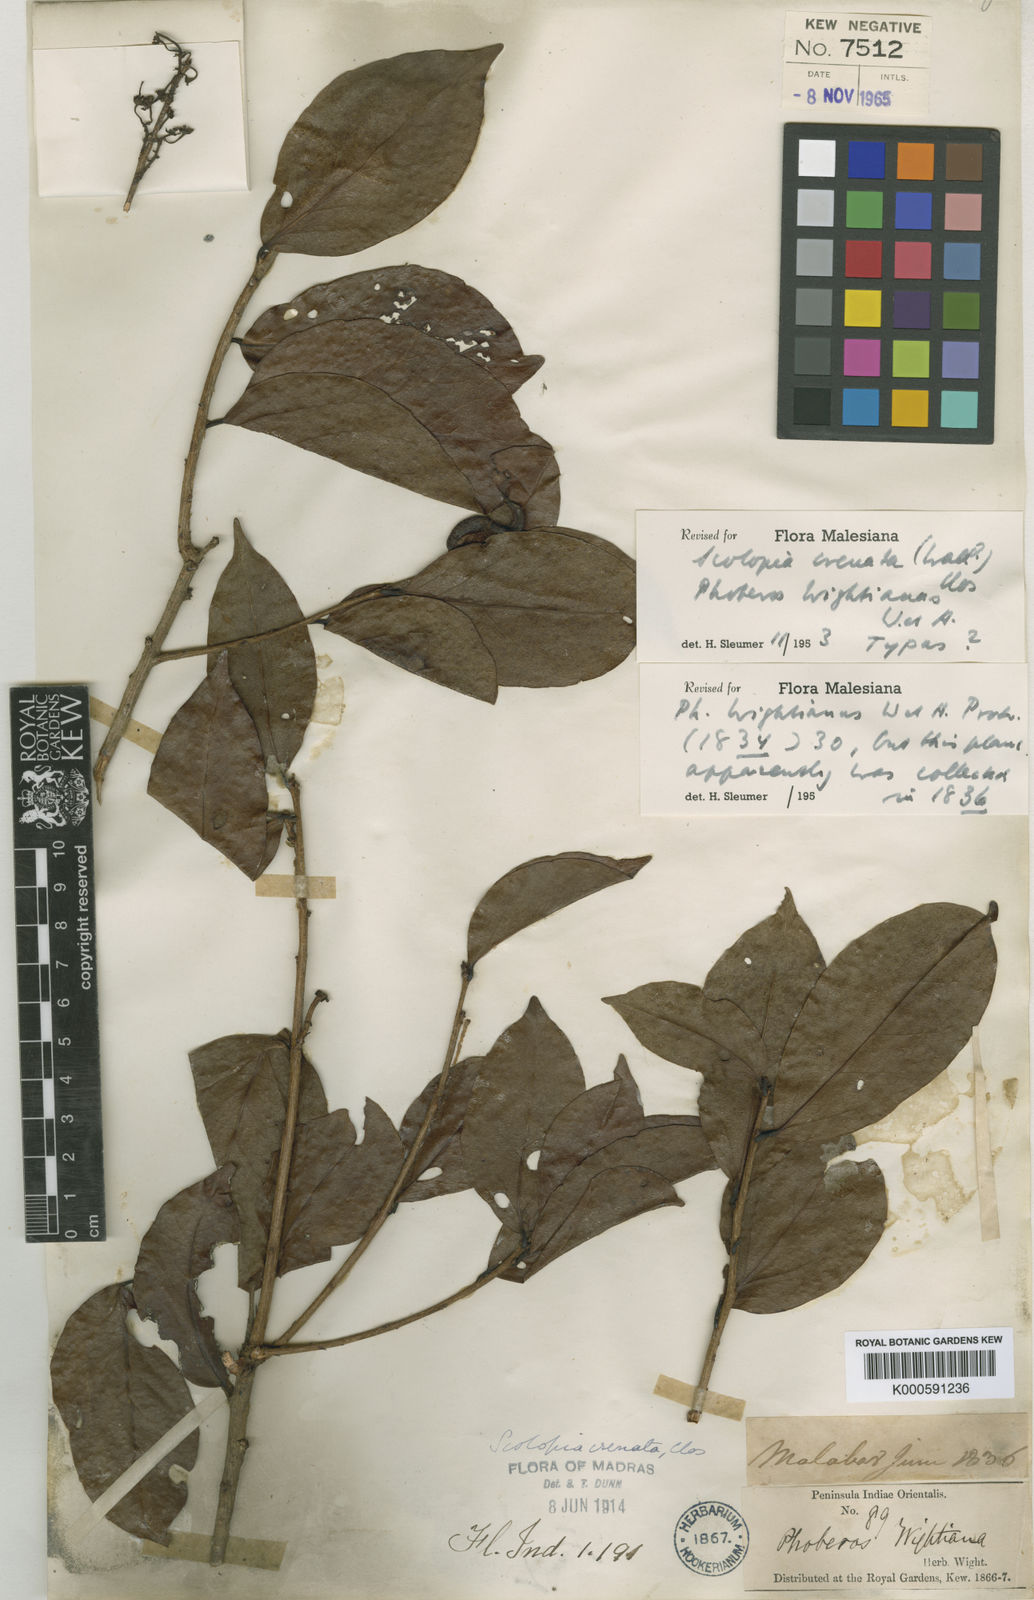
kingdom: Plantae
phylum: Tracheophyta
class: Magnoliopsida
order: Malpighiales
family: Salicaceae
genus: Scolopia
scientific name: Scolopia crenata
